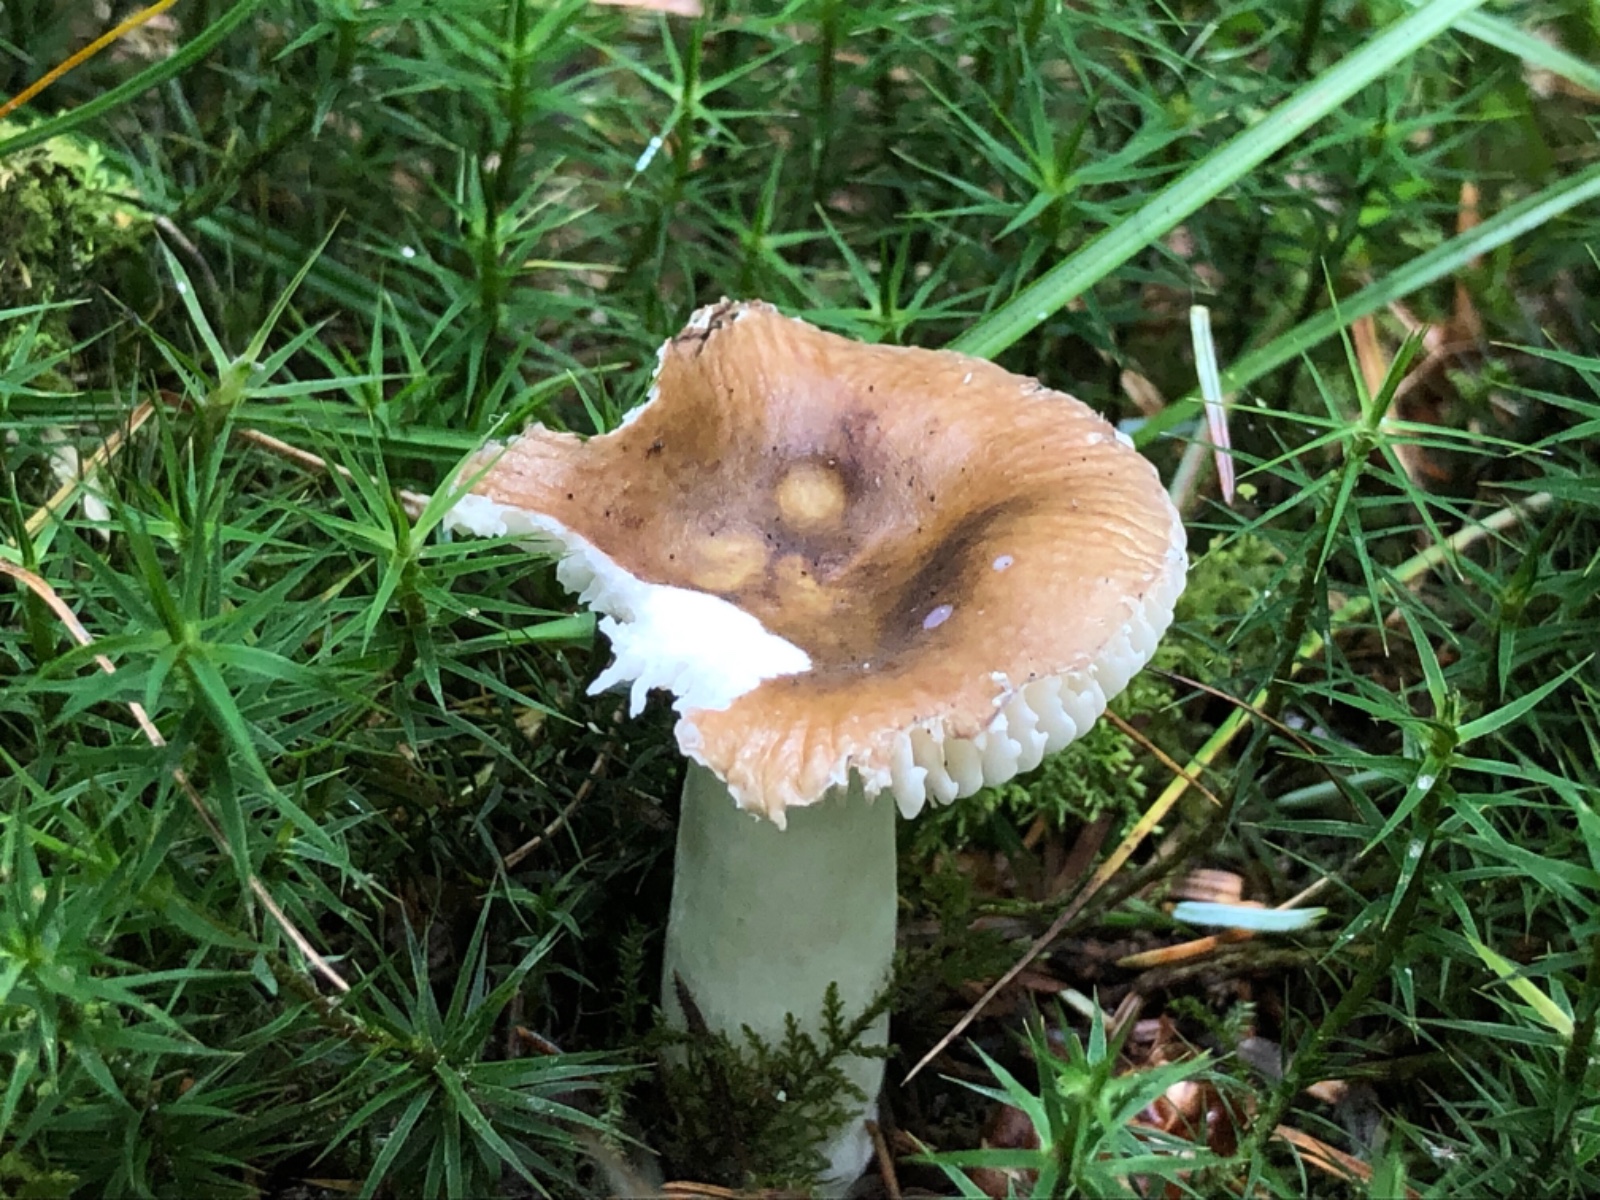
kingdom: Fungi
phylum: Basidiomycota
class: Agaricomycetes
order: Russulales
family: Russulaceae
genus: Russula
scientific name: Russula
